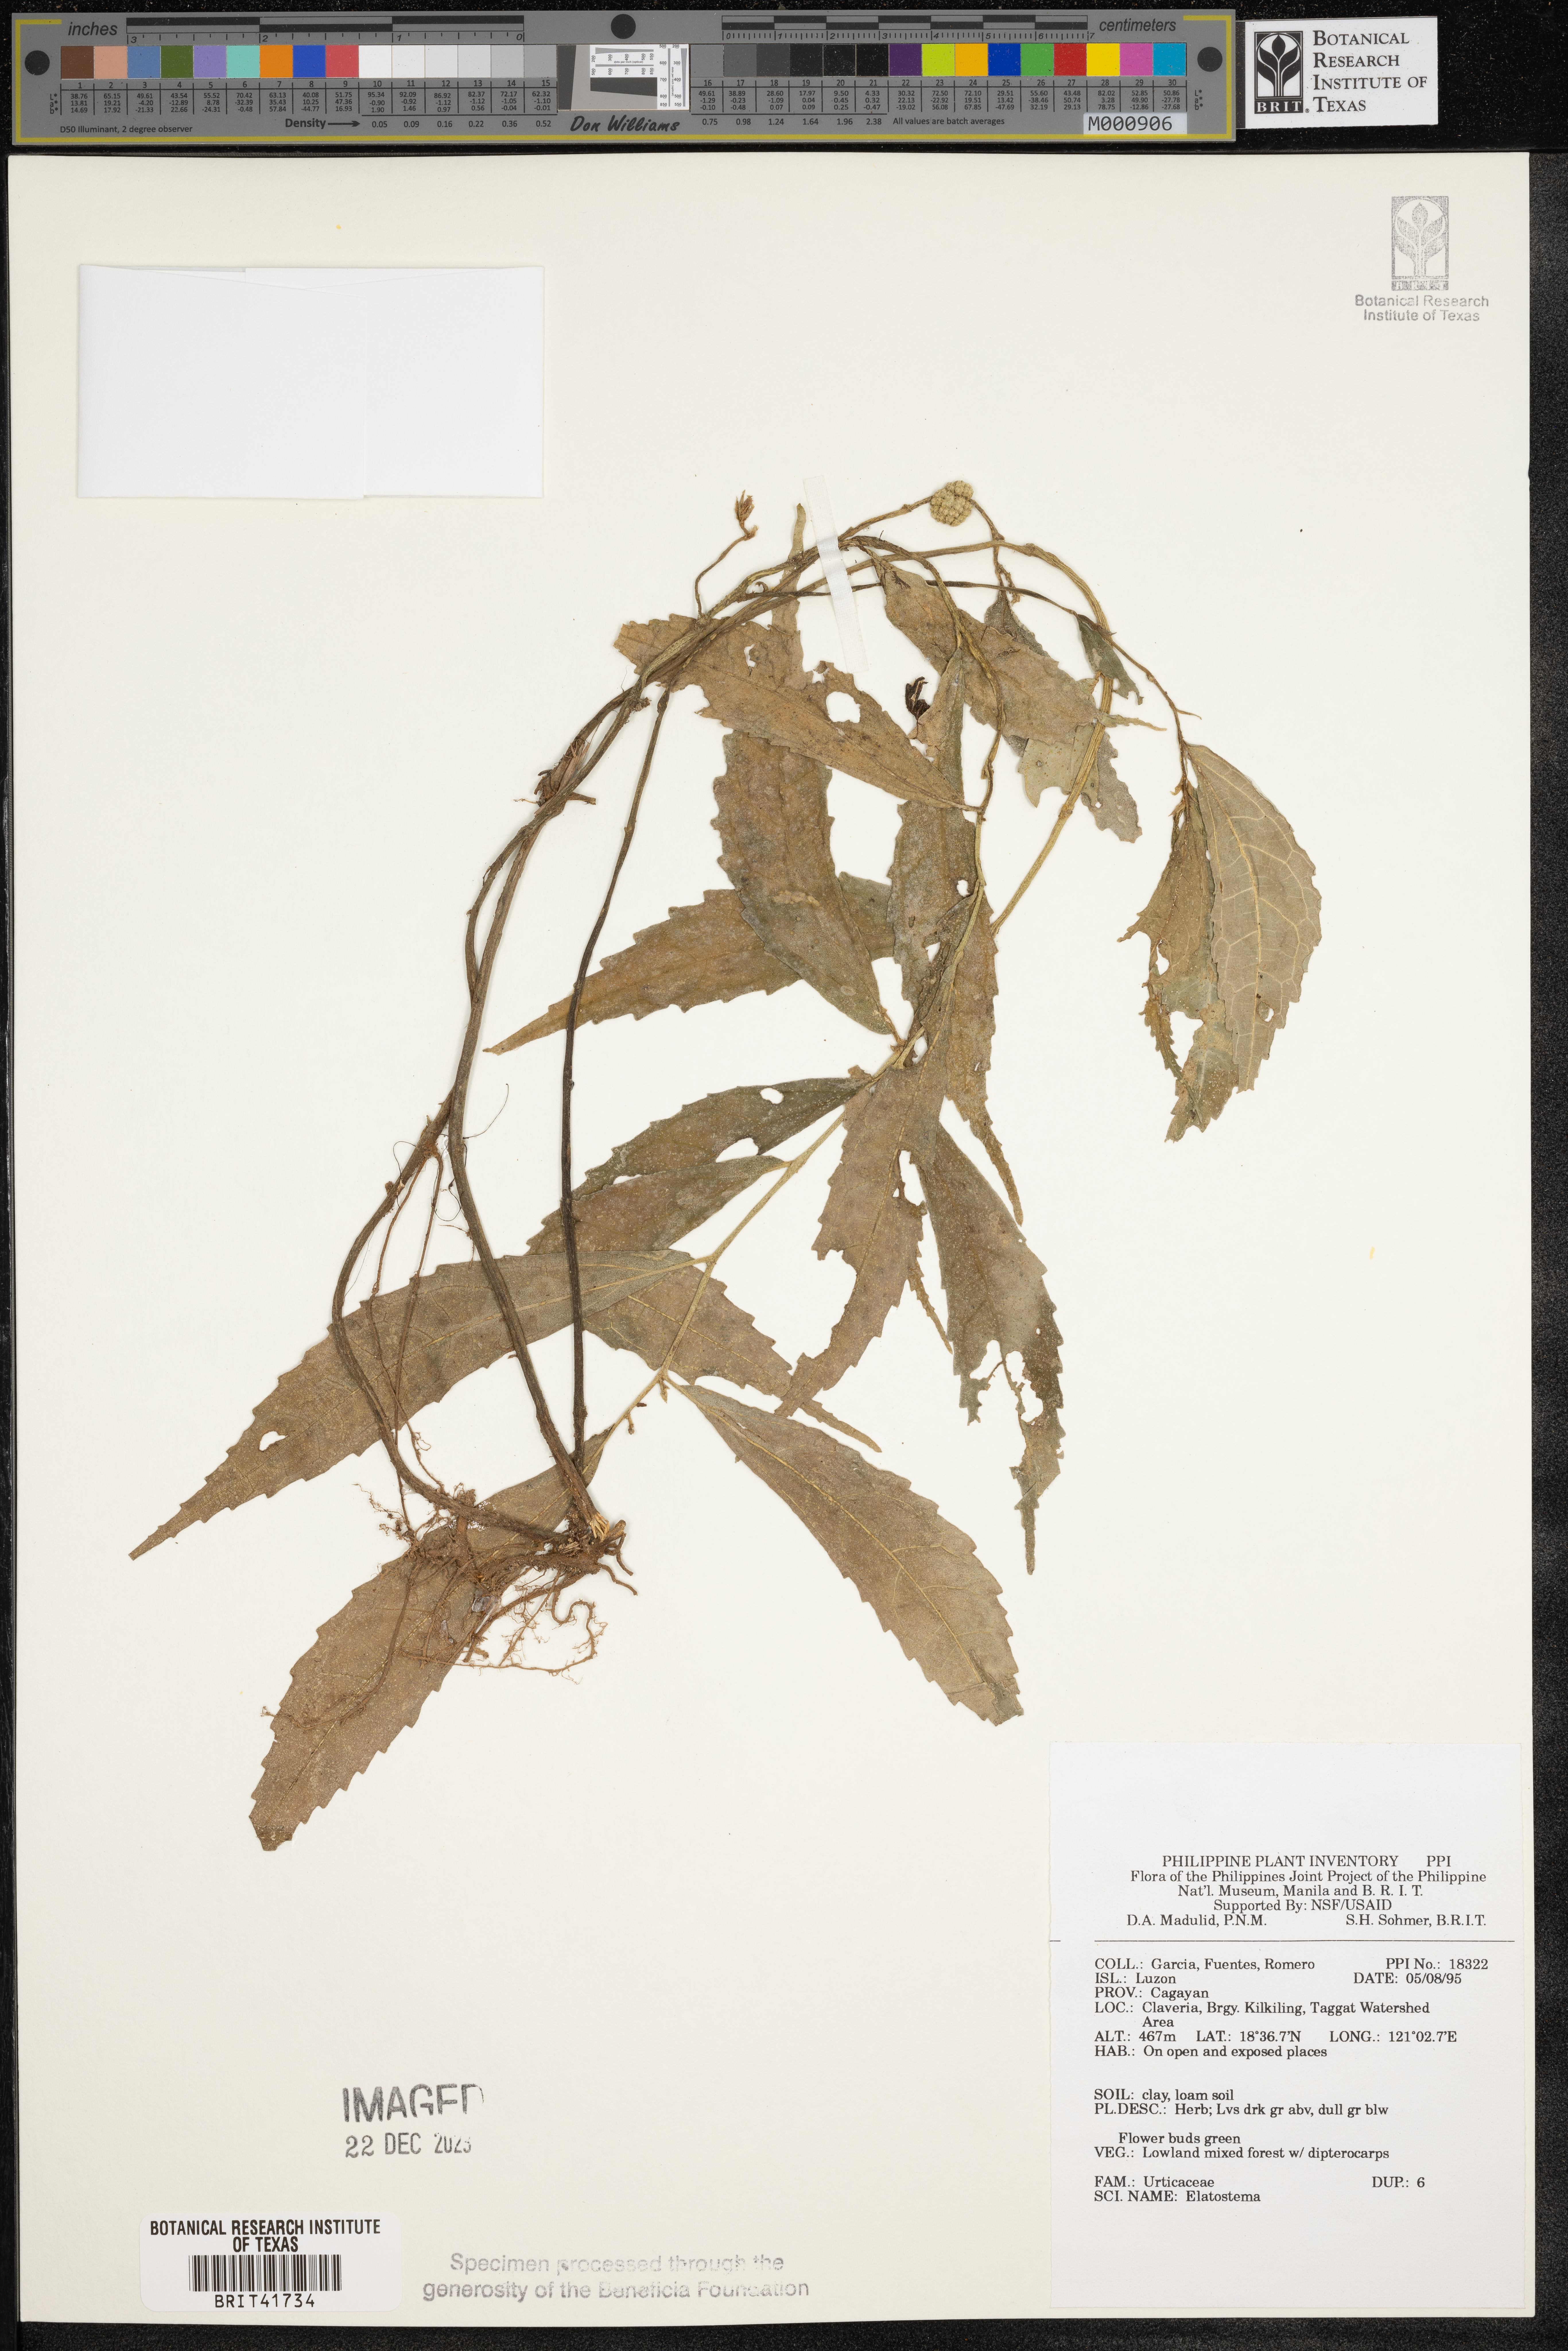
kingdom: Plantae
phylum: Tracheophyta
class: Magnoliopsida
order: Rosales
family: Urticaceae
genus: Elatostema
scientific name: Elatostema
